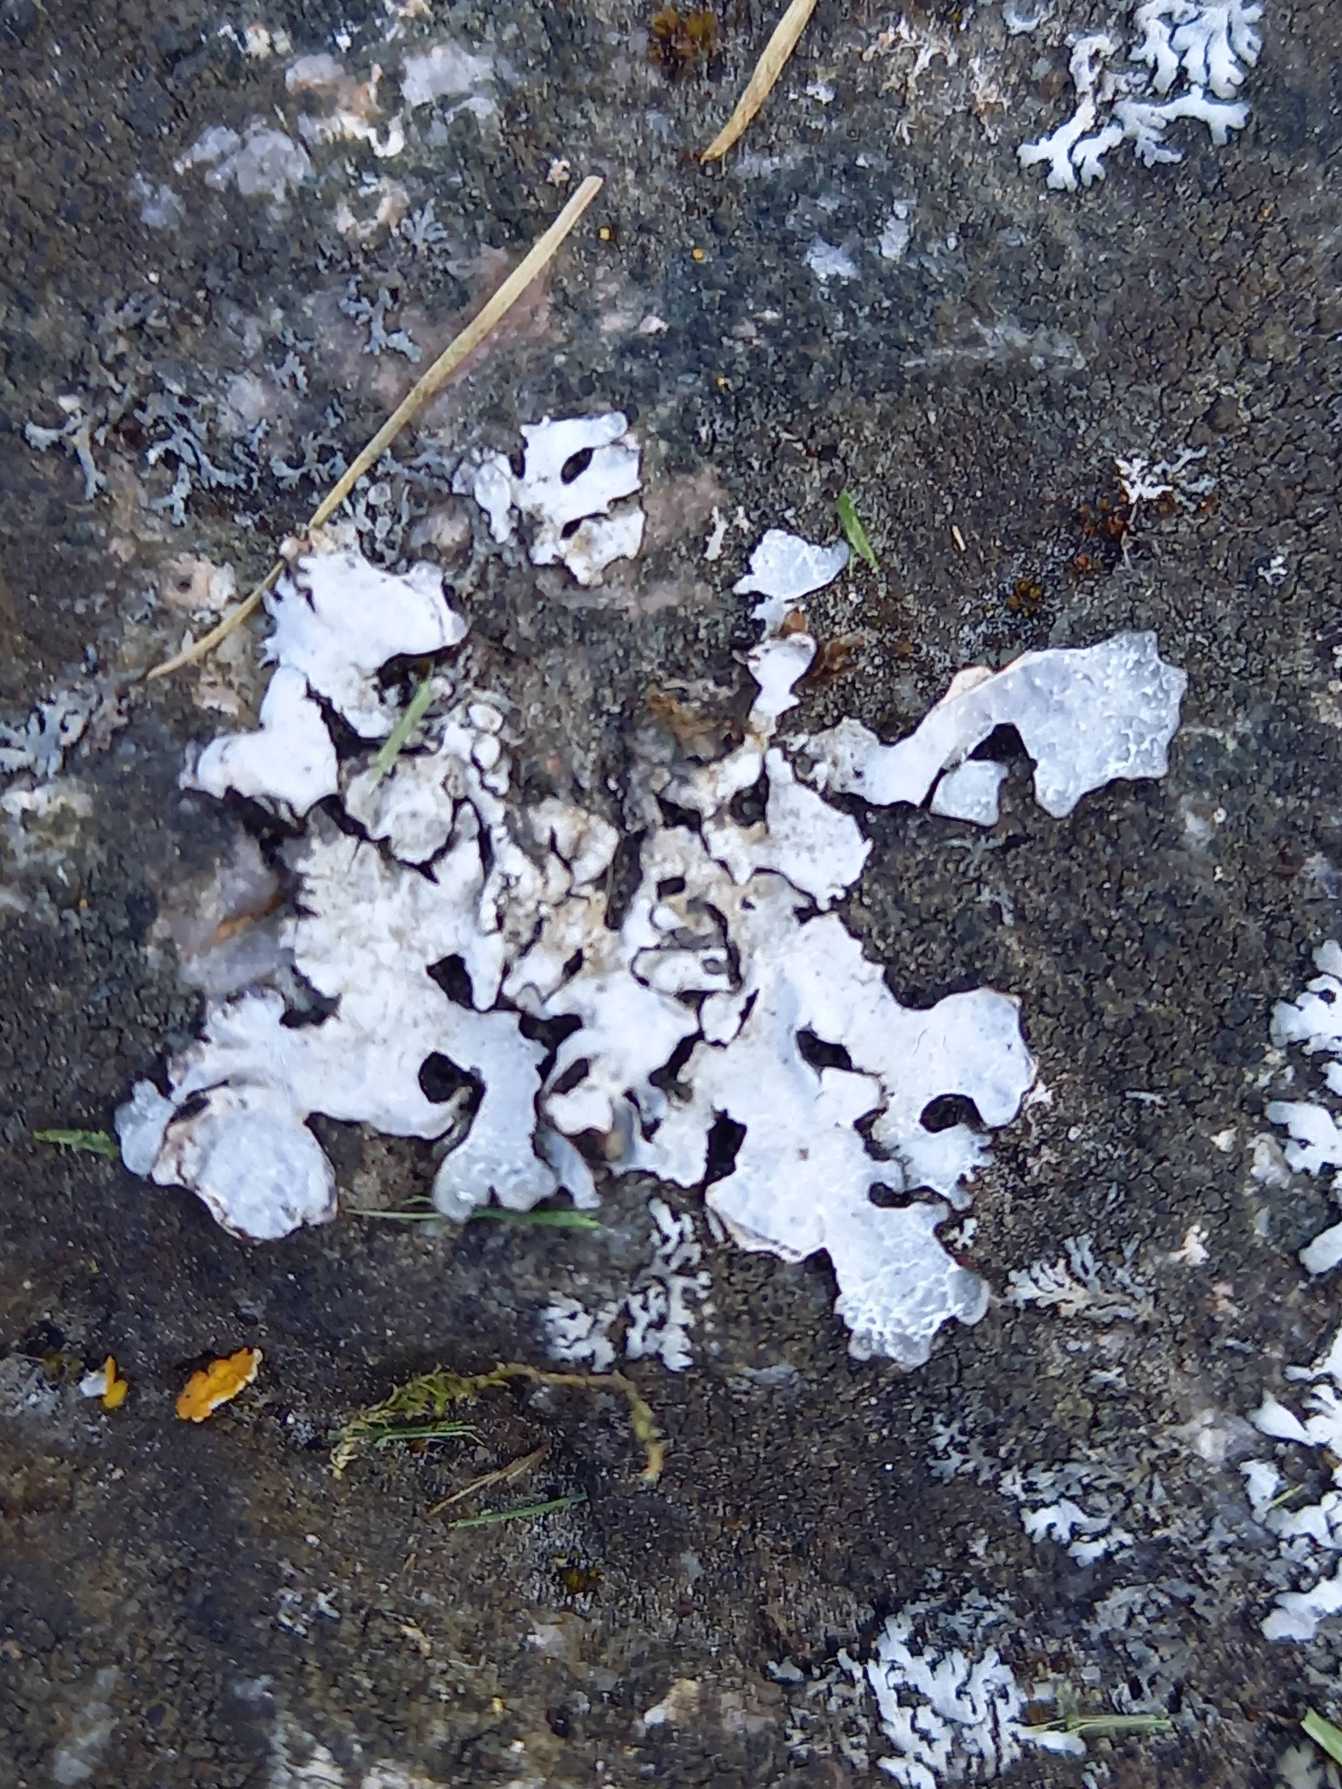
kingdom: Fungi
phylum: Ascomycota
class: Lecanoromycetes
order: Lecanorales
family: Parmeliaceae
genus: Parmelia
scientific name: Parmelia sulcata
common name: Rynket skållav
